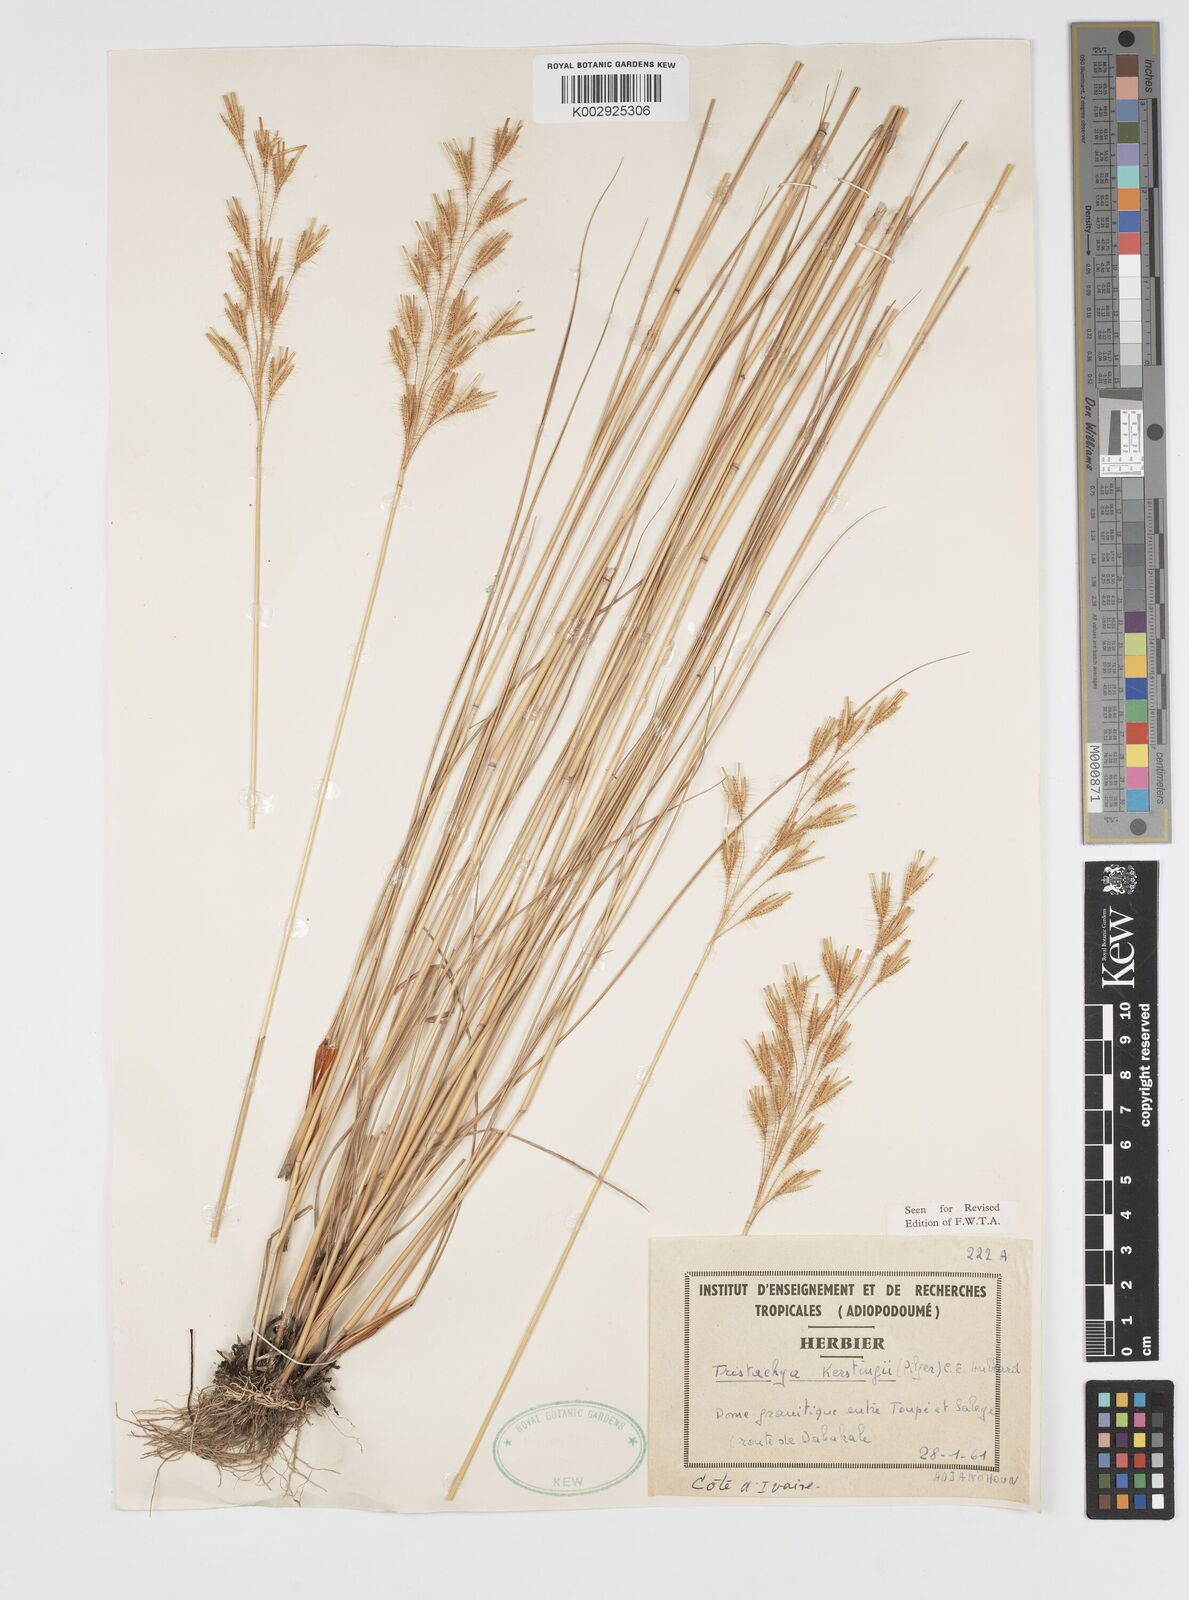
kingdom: Plantae
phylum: Tracheophyta
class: Liliopsida
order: Poales
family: Poaceae
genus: Loudetiopsis
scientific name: Loudetiopsis kerstingii
